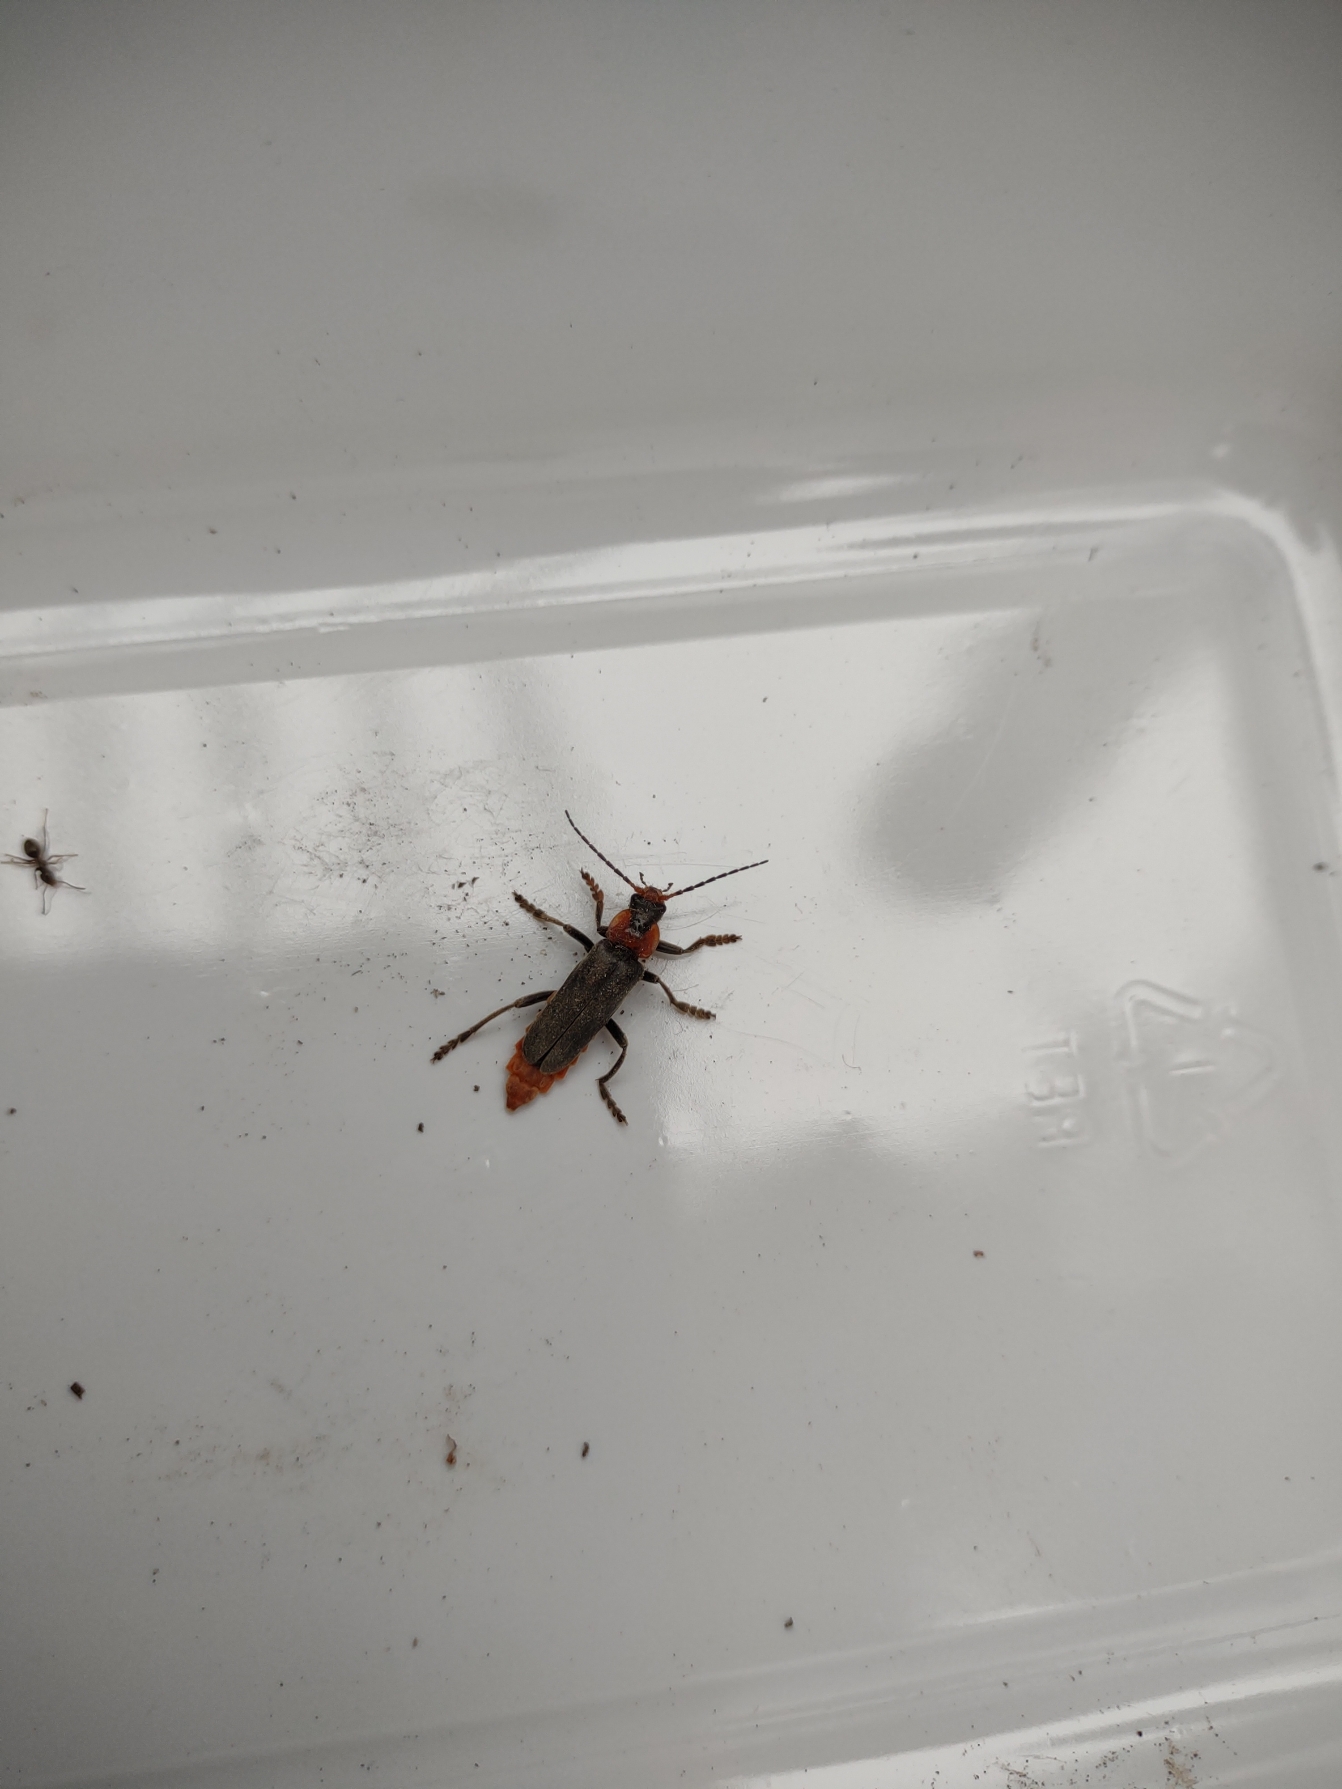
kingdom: Animalia
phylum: Arthropoda
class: Insecta
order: Coleoptera
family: Cantharidae
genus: Cantharis
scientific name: Cantharis fusca
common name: Stor blødvinge
